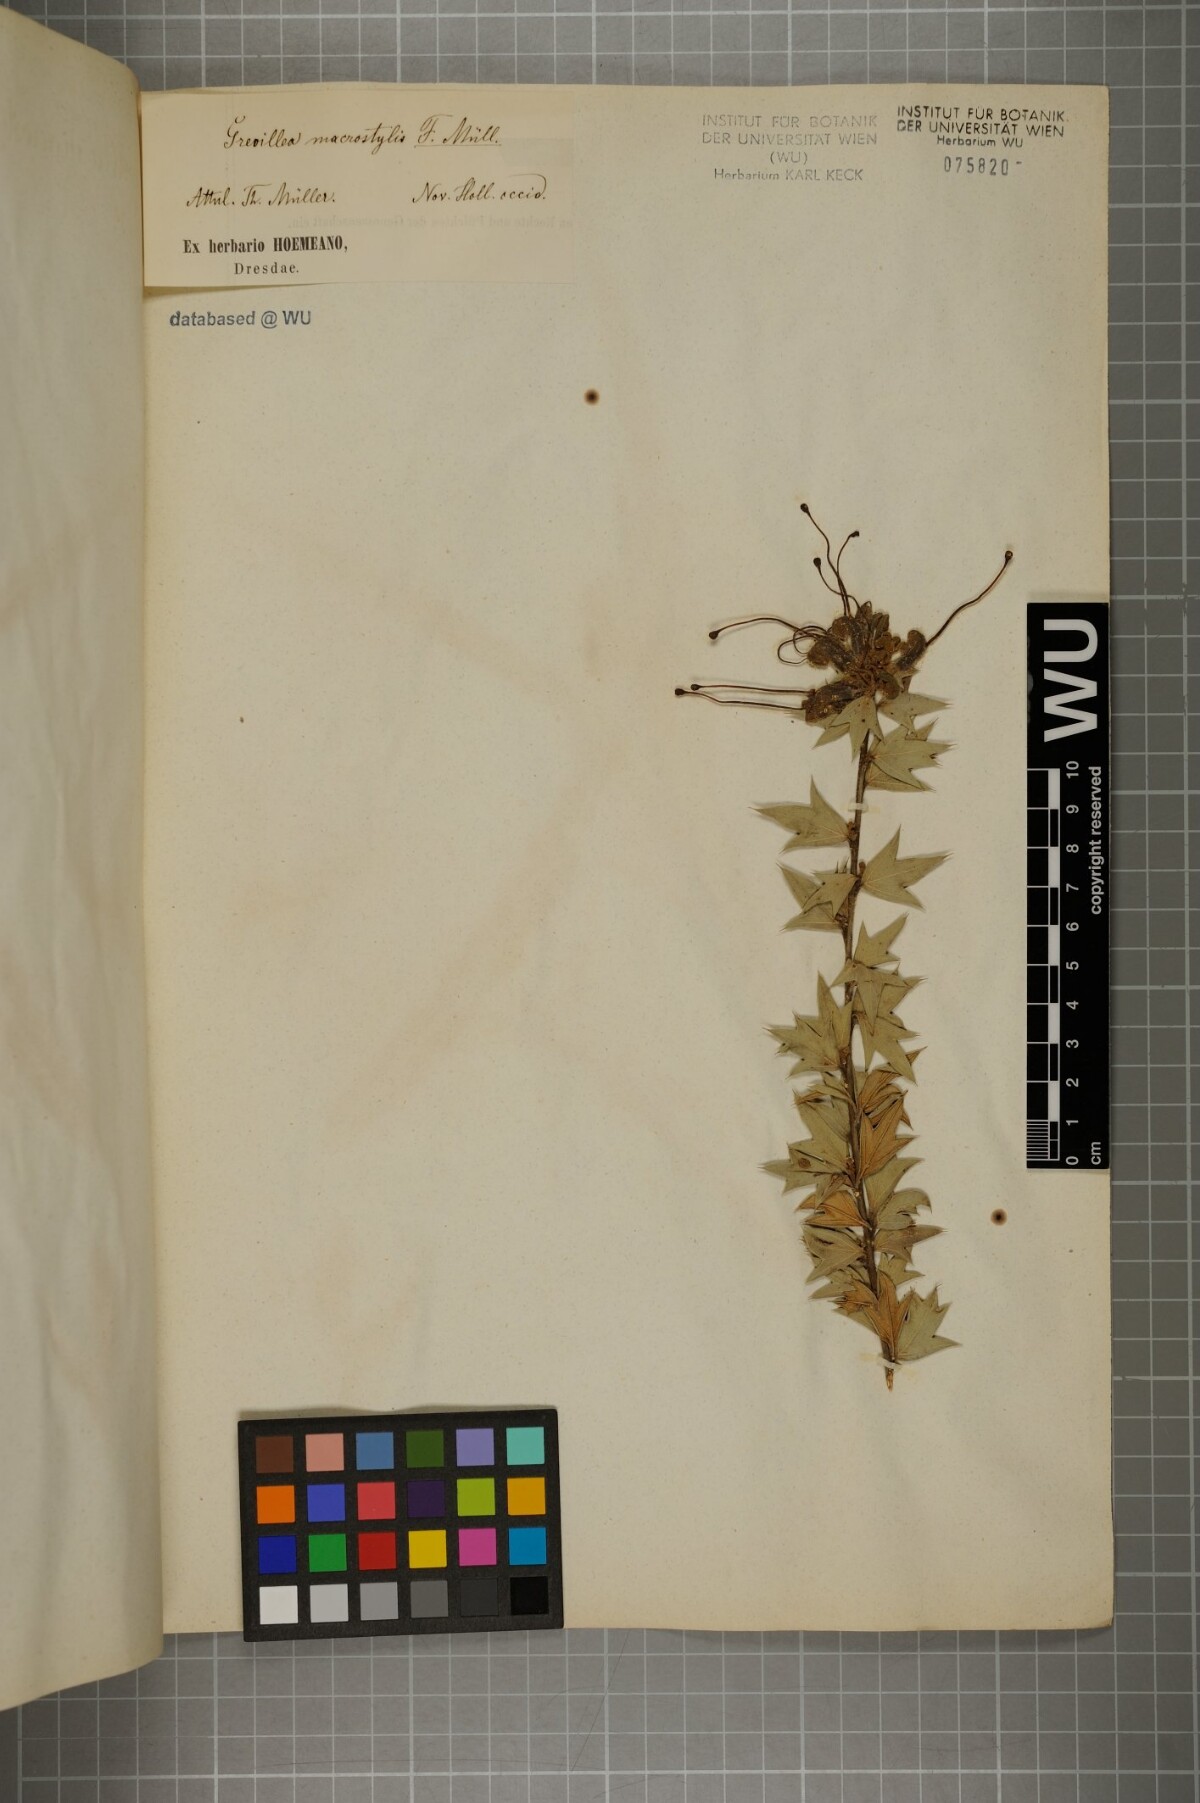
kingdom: Plantae
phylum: Tracheophyta
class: Magnoliopsida
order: Proteales
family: Proteaceae
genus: Grevillea
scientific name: Grevillea tripartita
